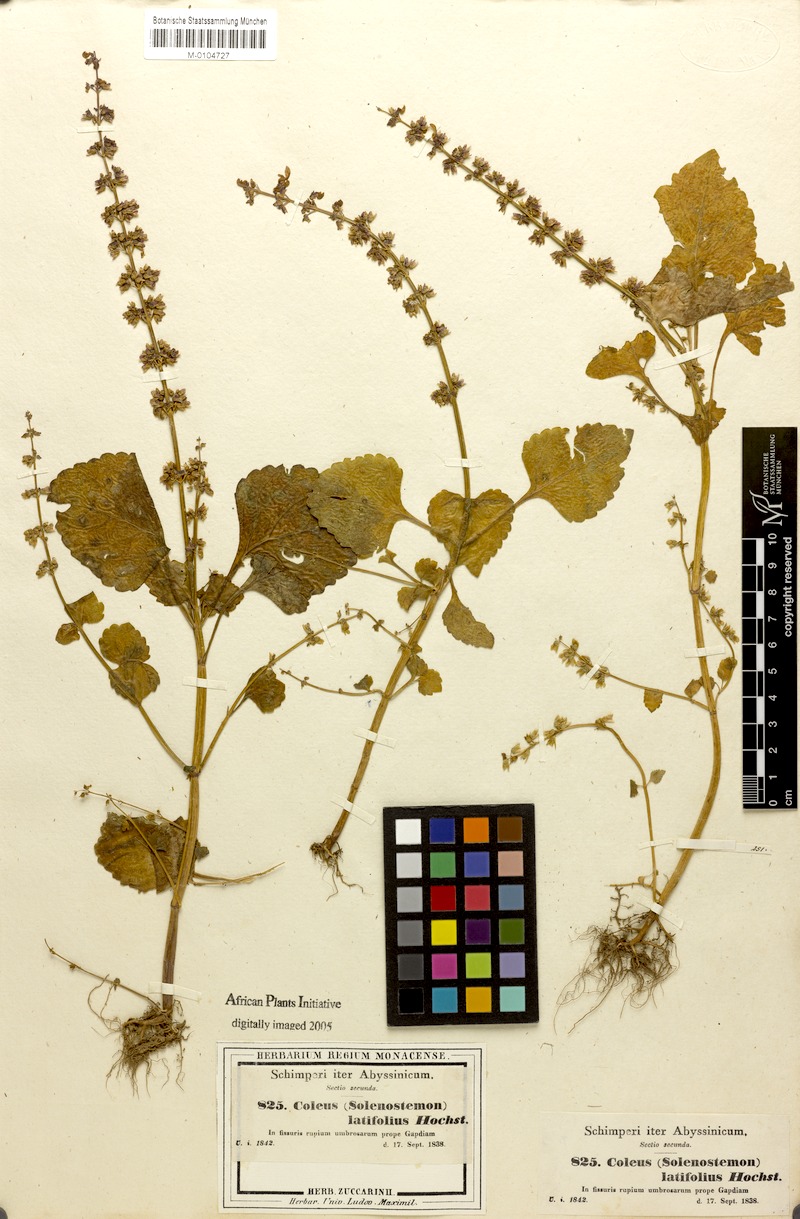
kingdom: Plantae
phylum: Tracheophyta
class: Magnoliopsida
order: Lamiales
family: Lamiaceae
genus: Coleus
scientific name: Coleus bojeri
